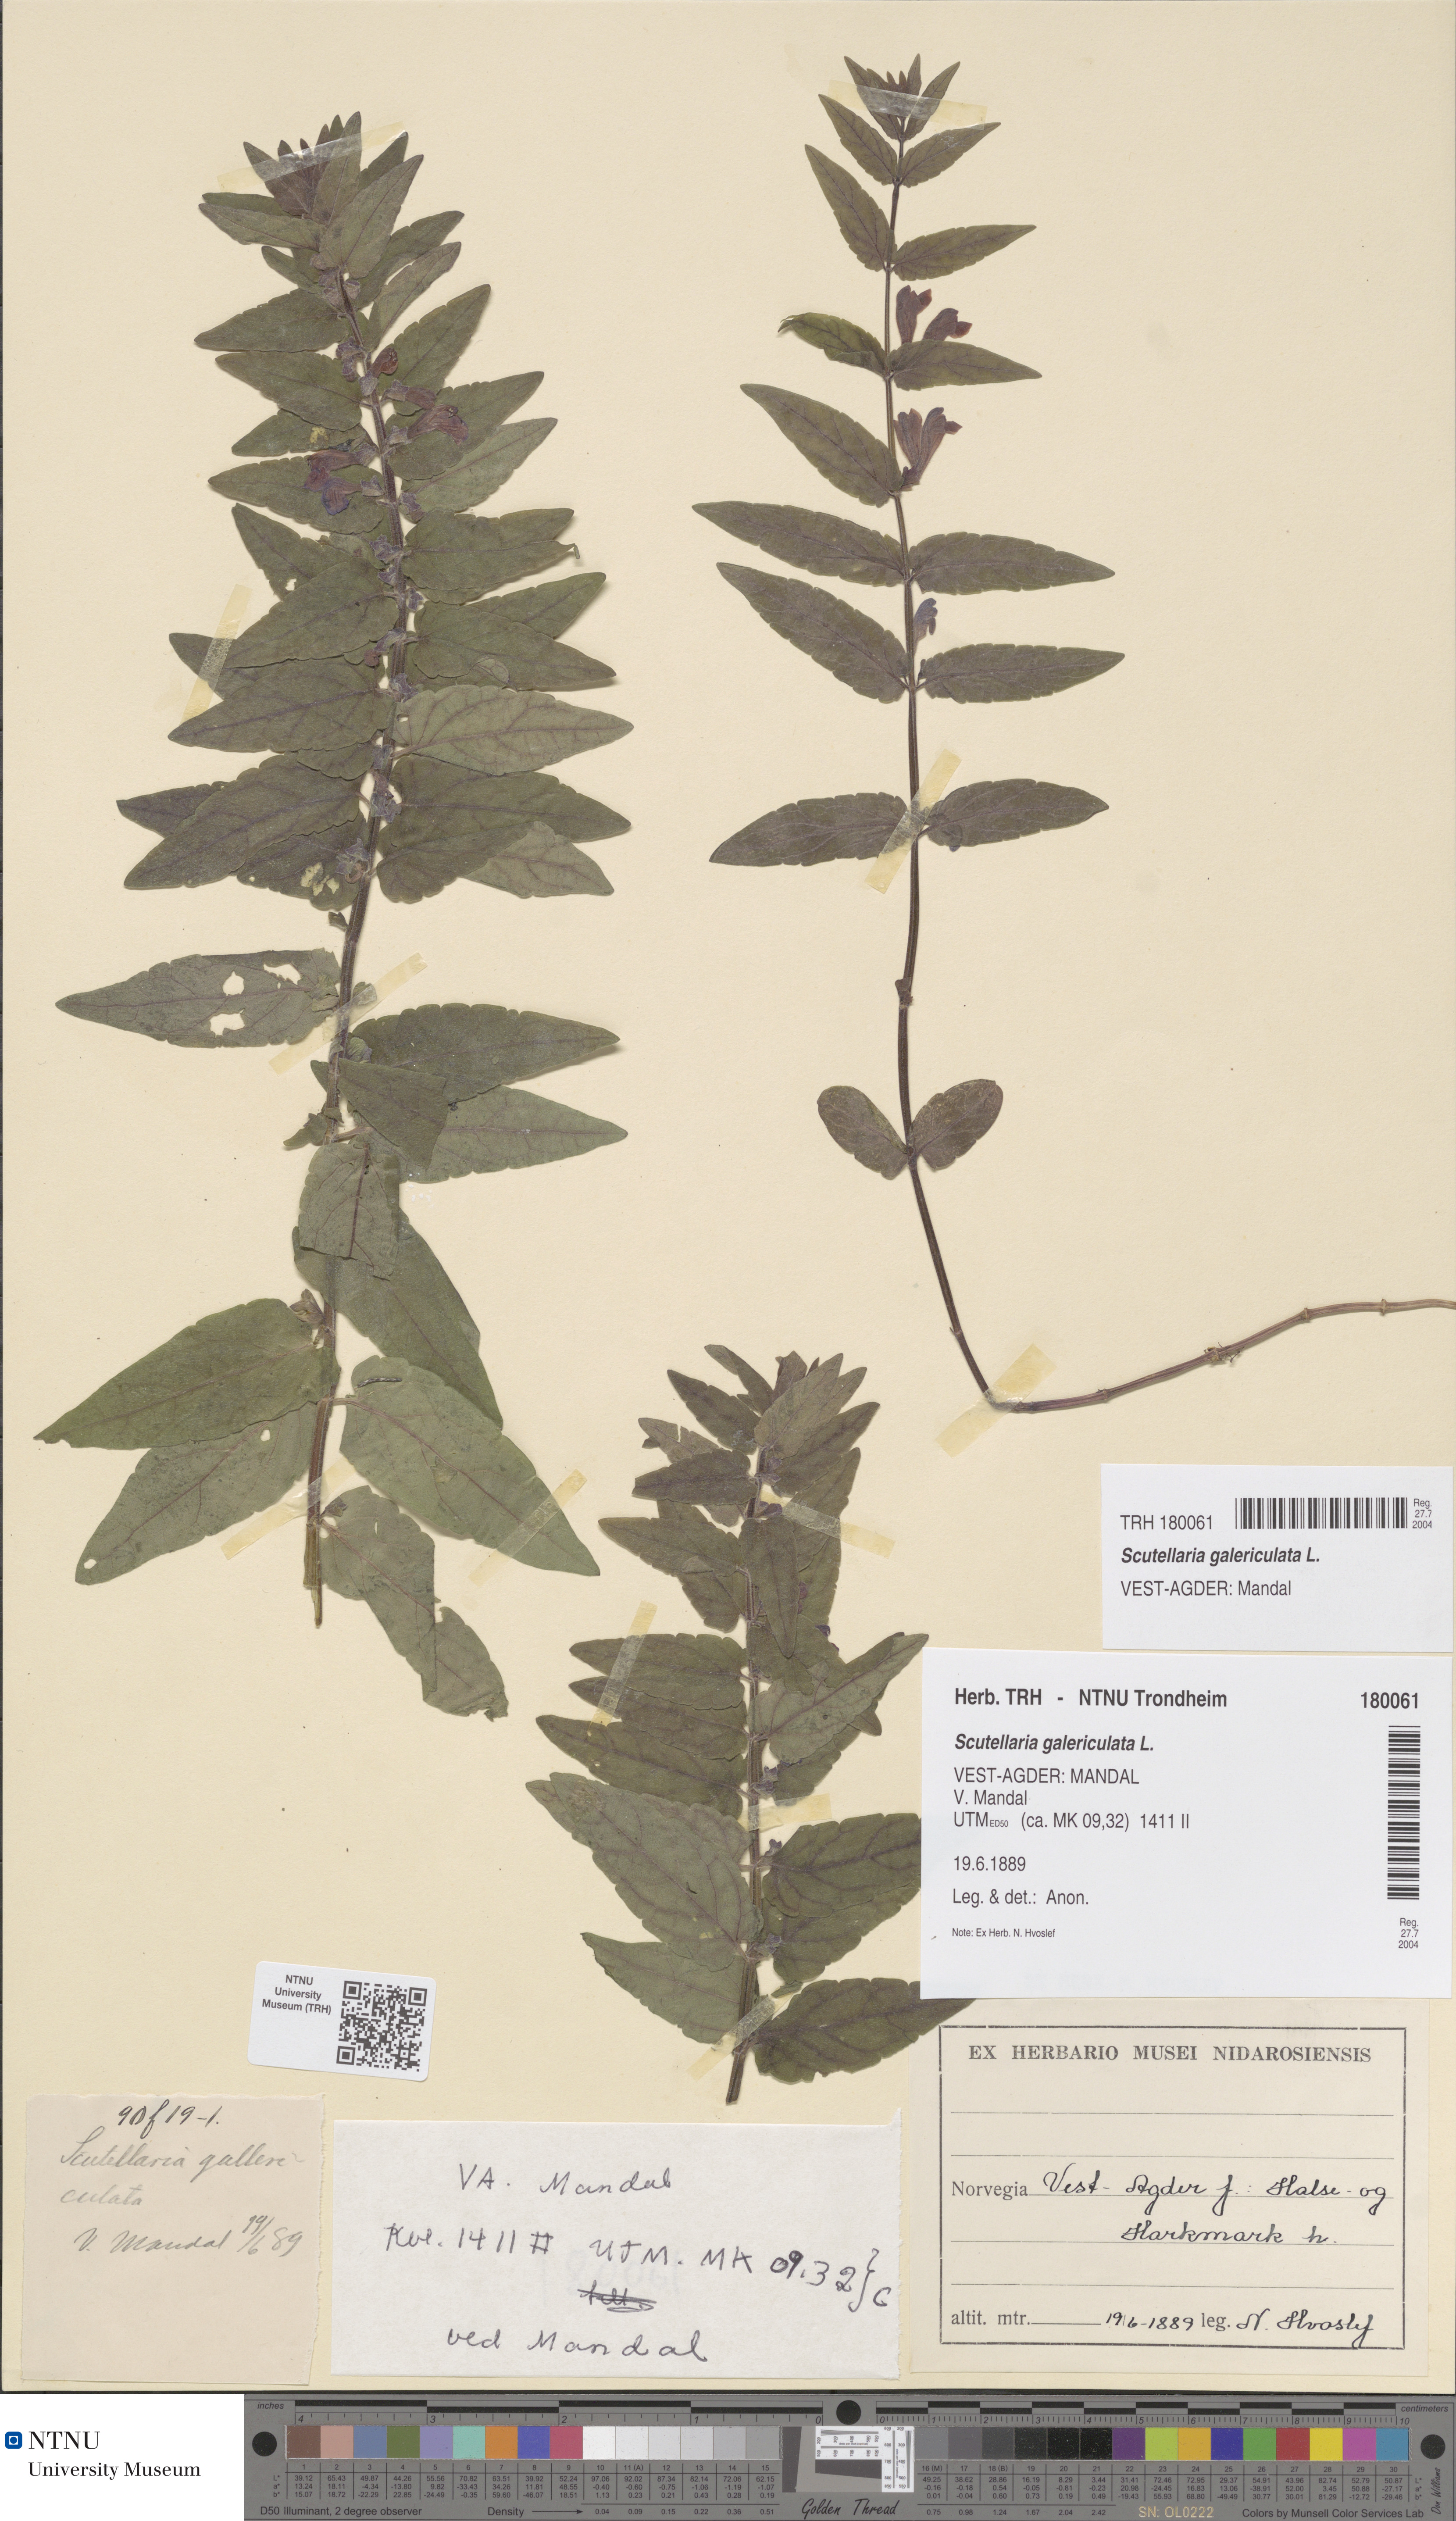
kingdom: Plantae
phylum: Tracheophyta
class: Magnoliopsida
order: Lamiales
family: Lamiaceae
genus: Scutellaria
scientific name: Scutellaria galericulata
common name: Skullcap
